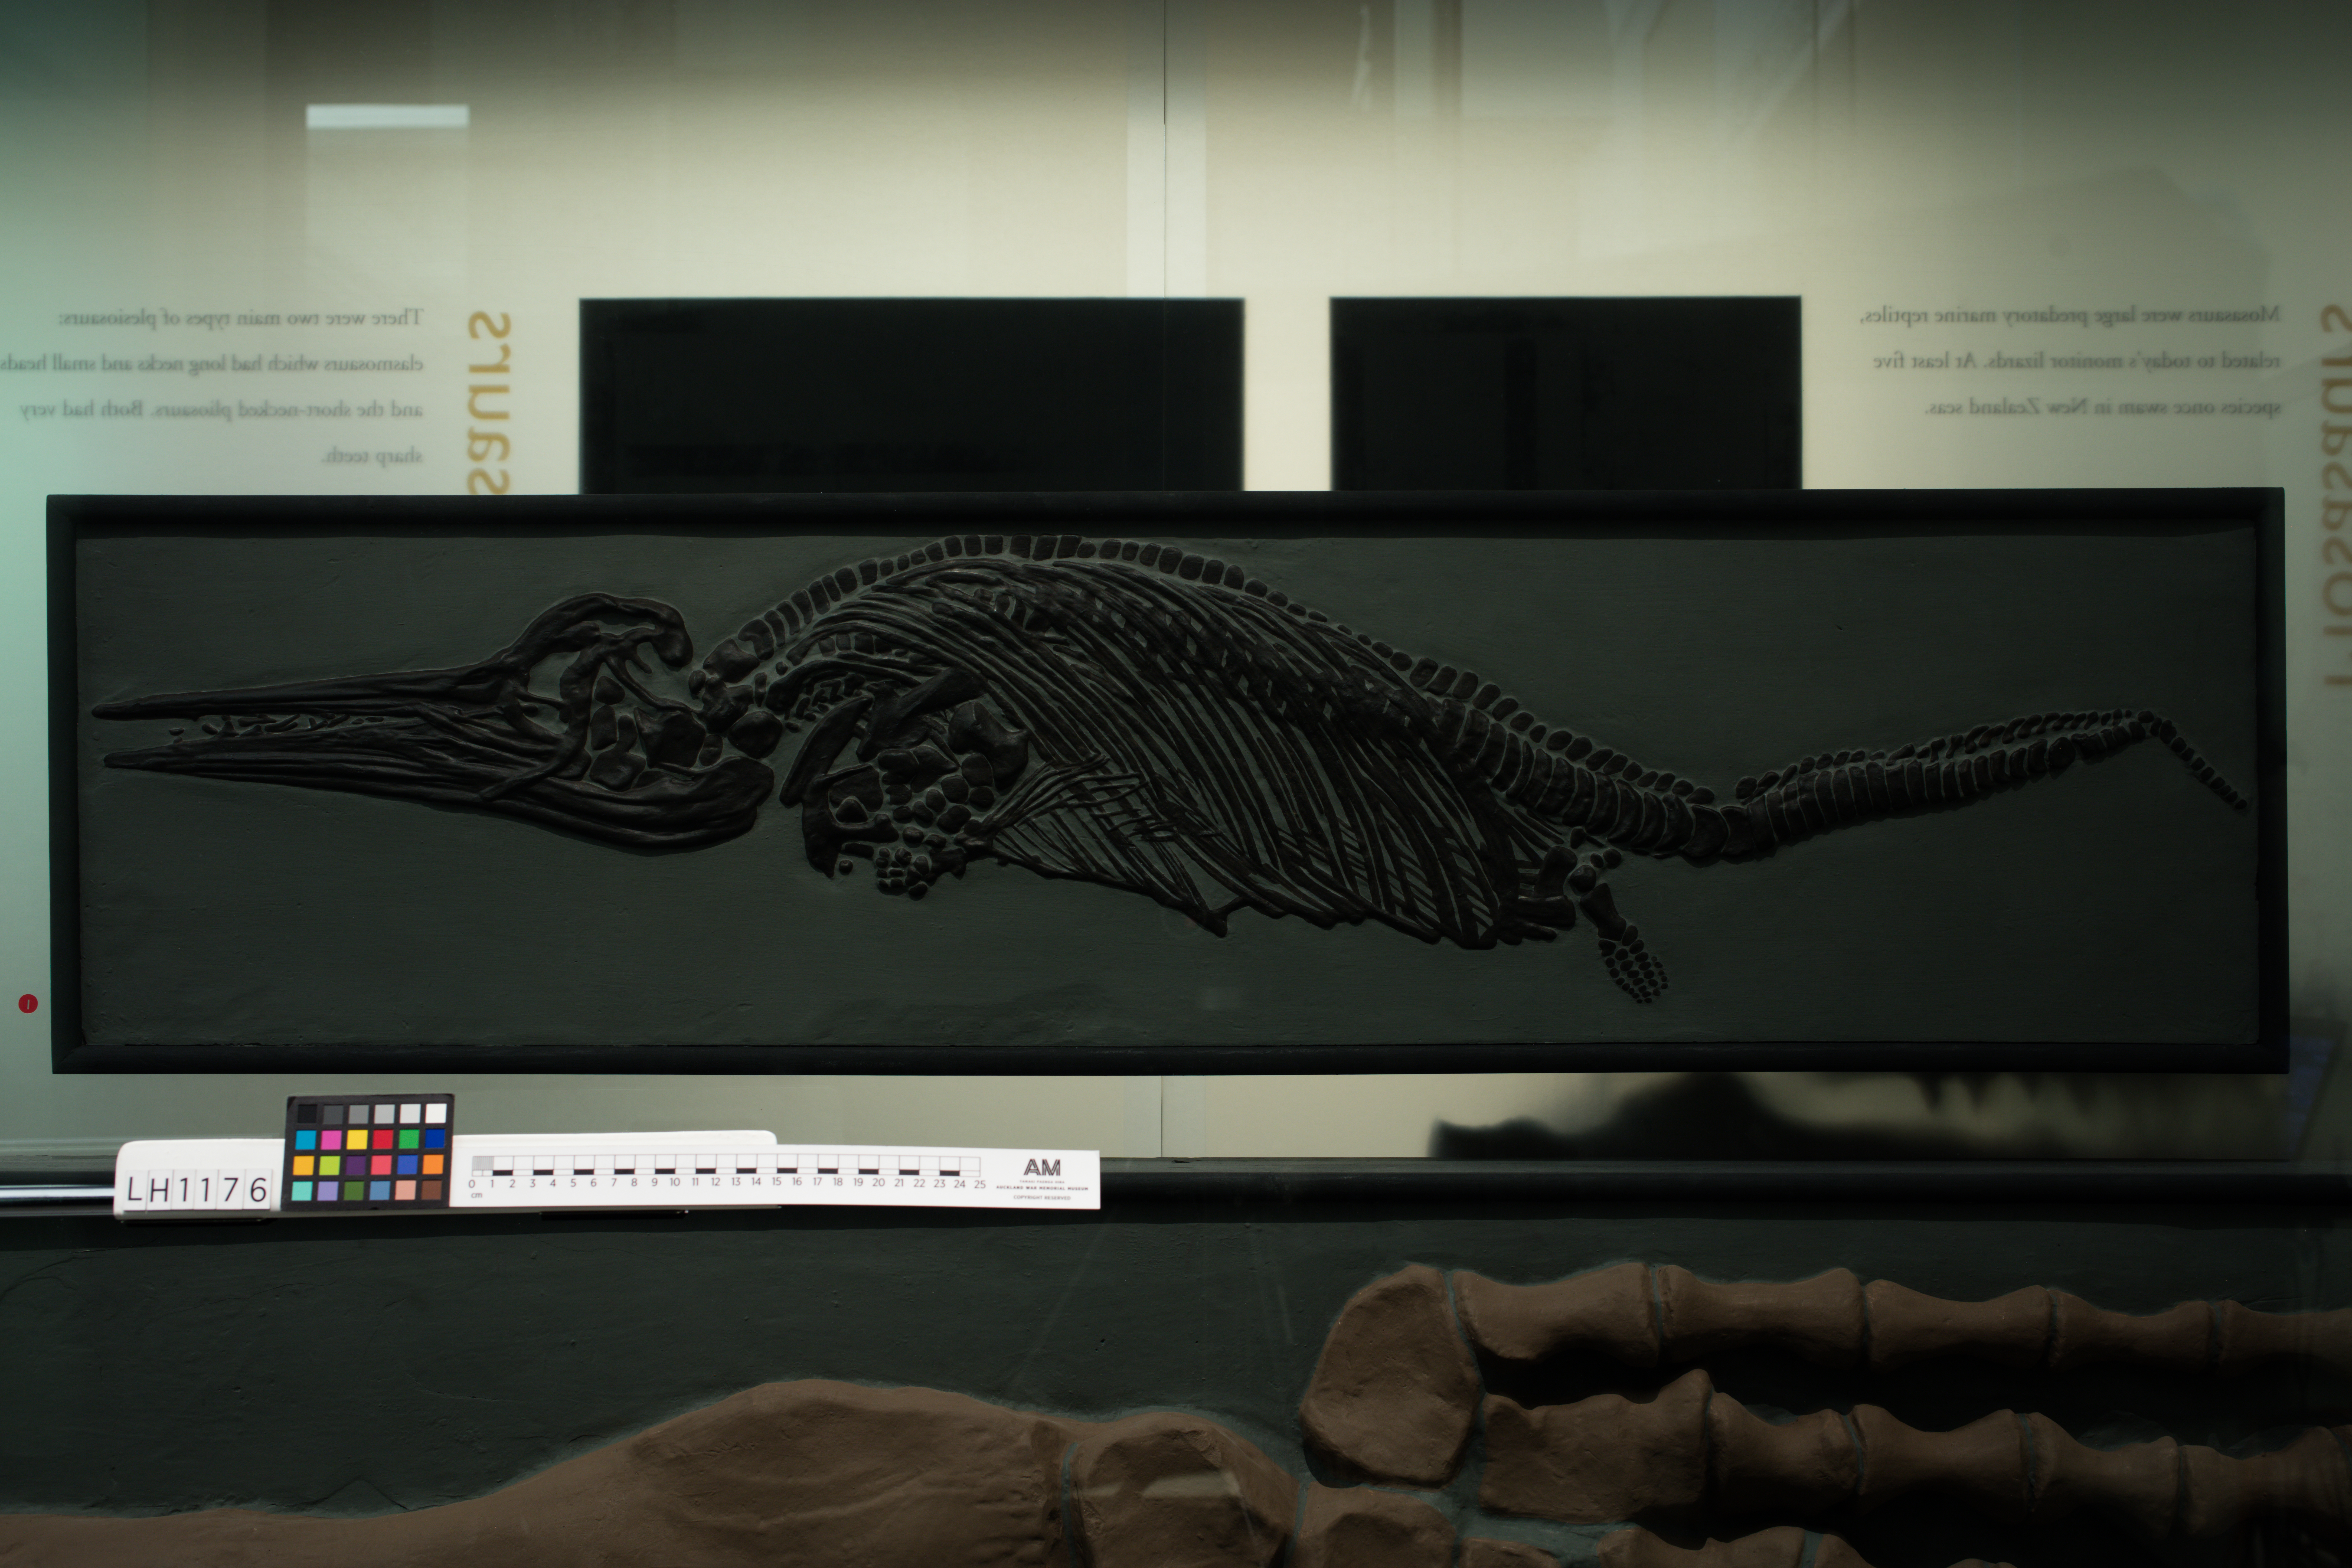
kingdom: Animalia
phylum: Chordata
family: Ichthyosauridae
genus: Ichthyosaurus
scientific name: Ichthyosaurus tenuirostris
